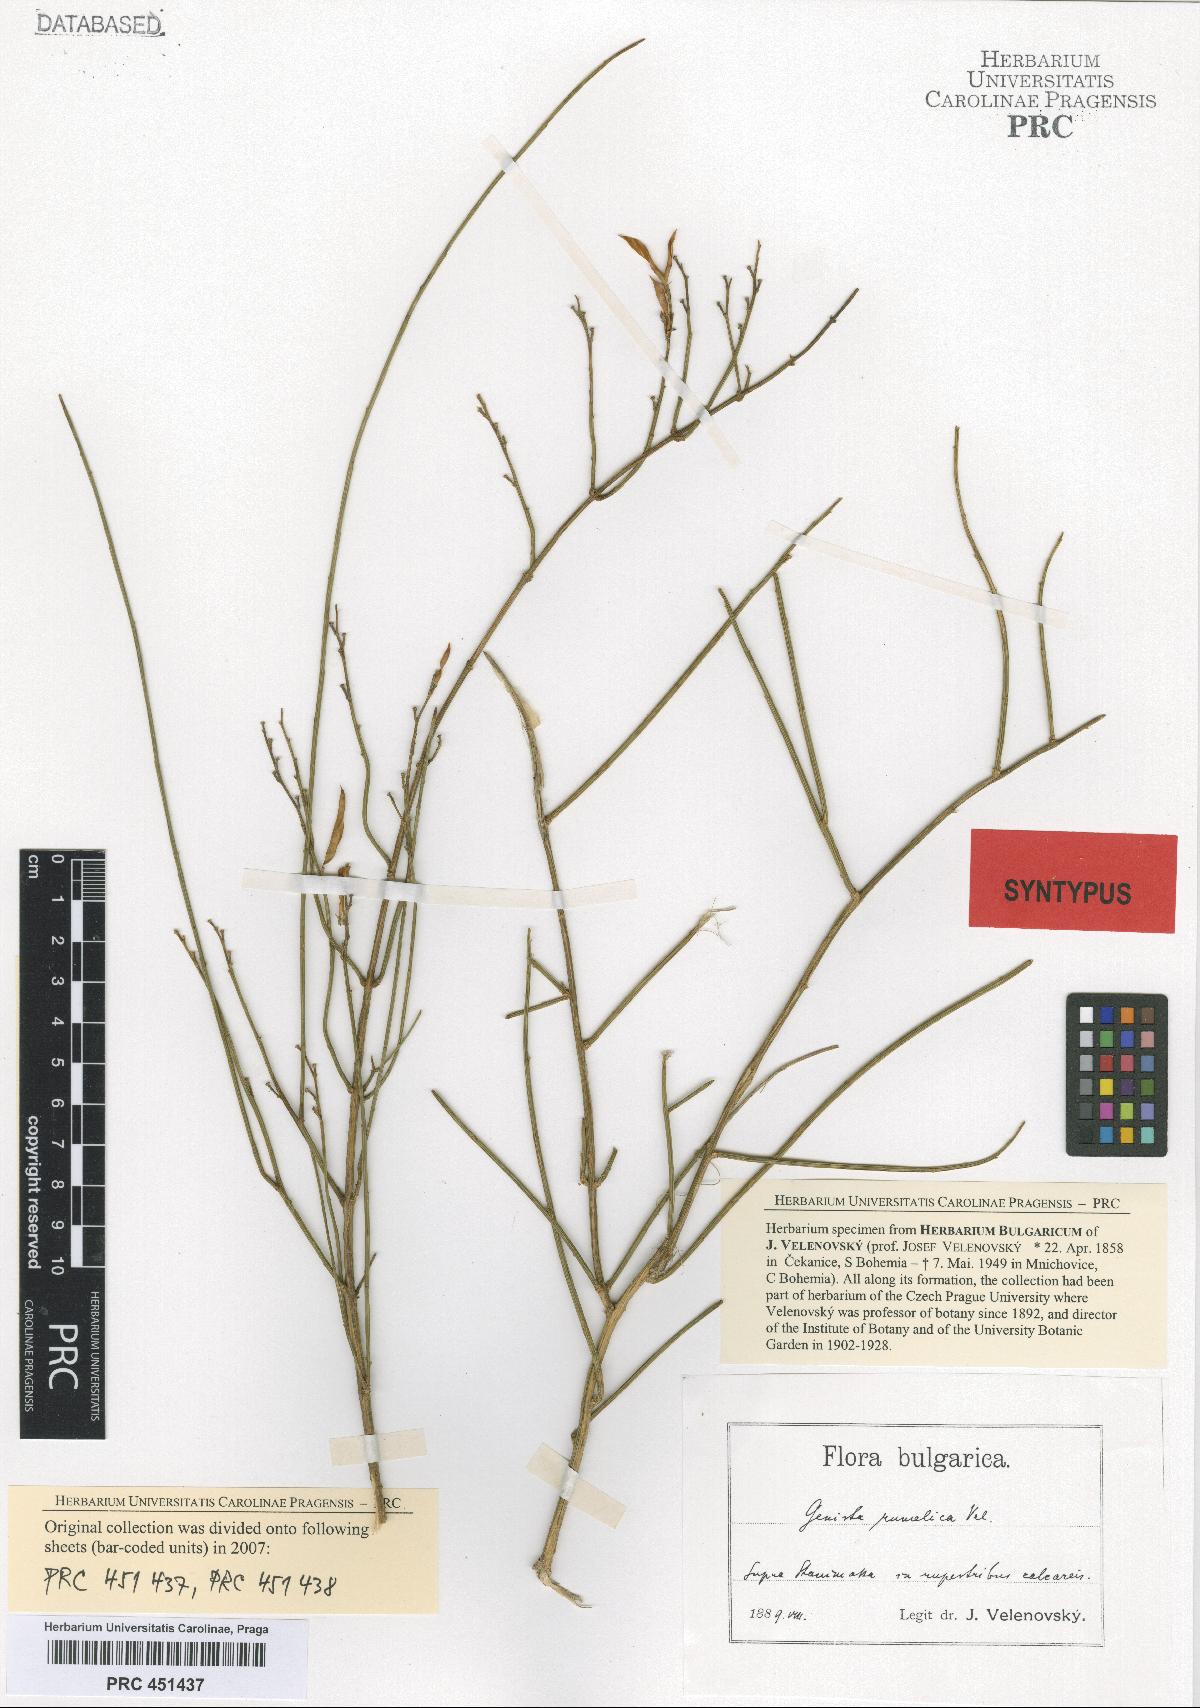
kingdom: Plantae
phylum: Tracheophyta
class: Magnoliopsida
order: Fabales
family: Fabaceae
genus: Genista
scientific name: Genista lydia
